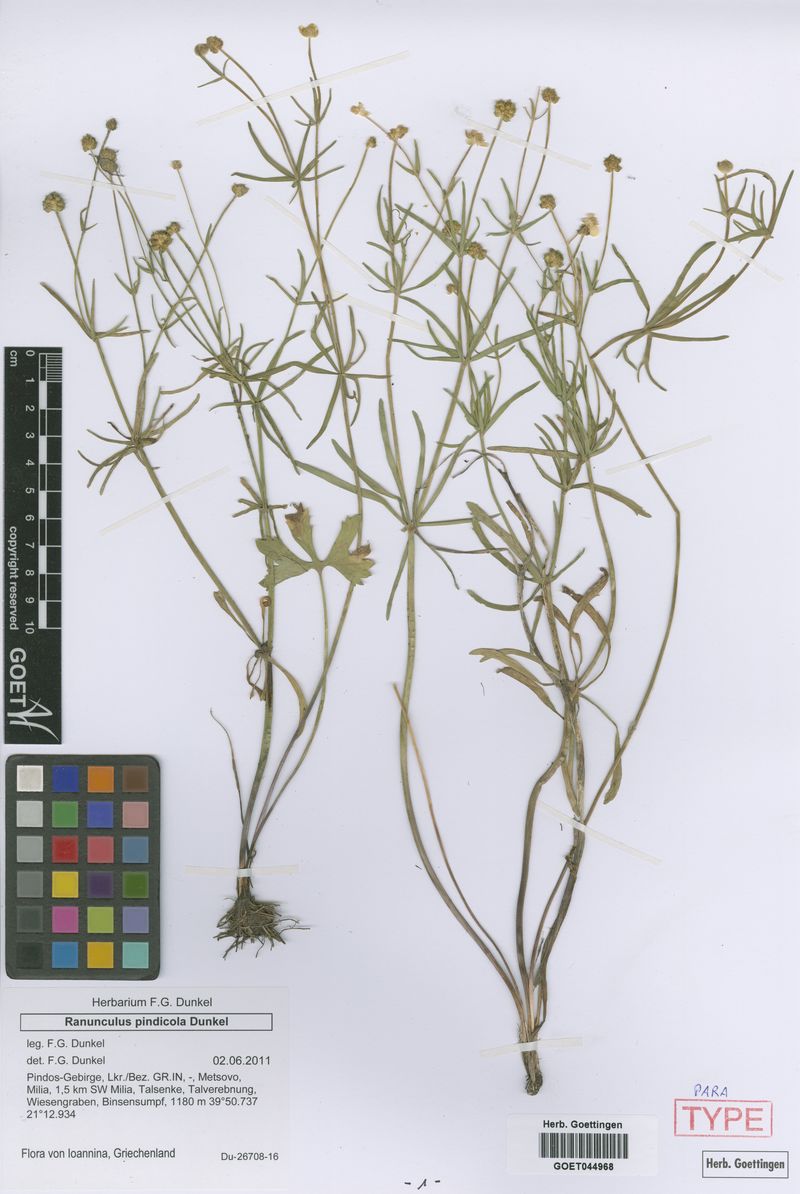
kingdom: Plantae
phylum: Tracheophyta
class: Magnoliopsida
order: Ranunculales
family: Ranunculaceae
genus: Ranunculus
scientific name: Ranunculus pindicola
